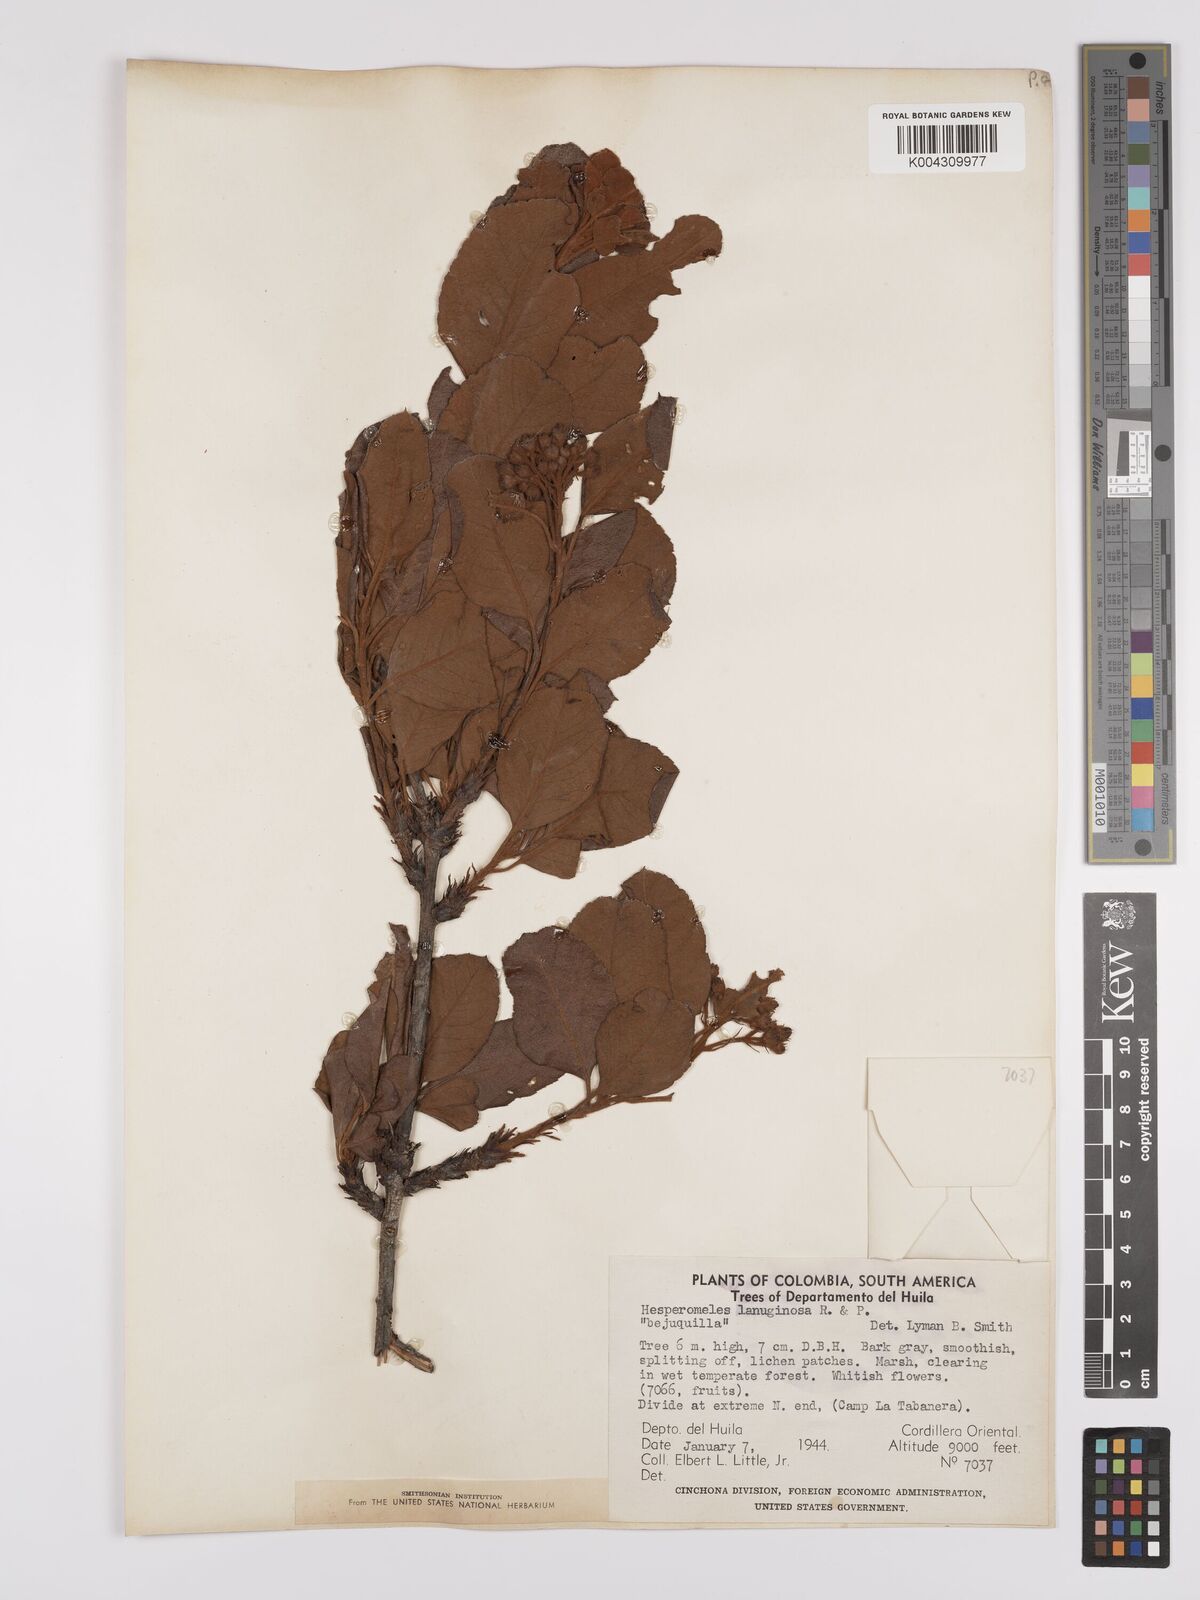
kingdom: Plantae
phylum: Tracheophyta
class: Magnoliopsida
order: Rosales
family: Rosaceae
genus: Hesperomeles
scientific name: Hesperomeles ferruginea
